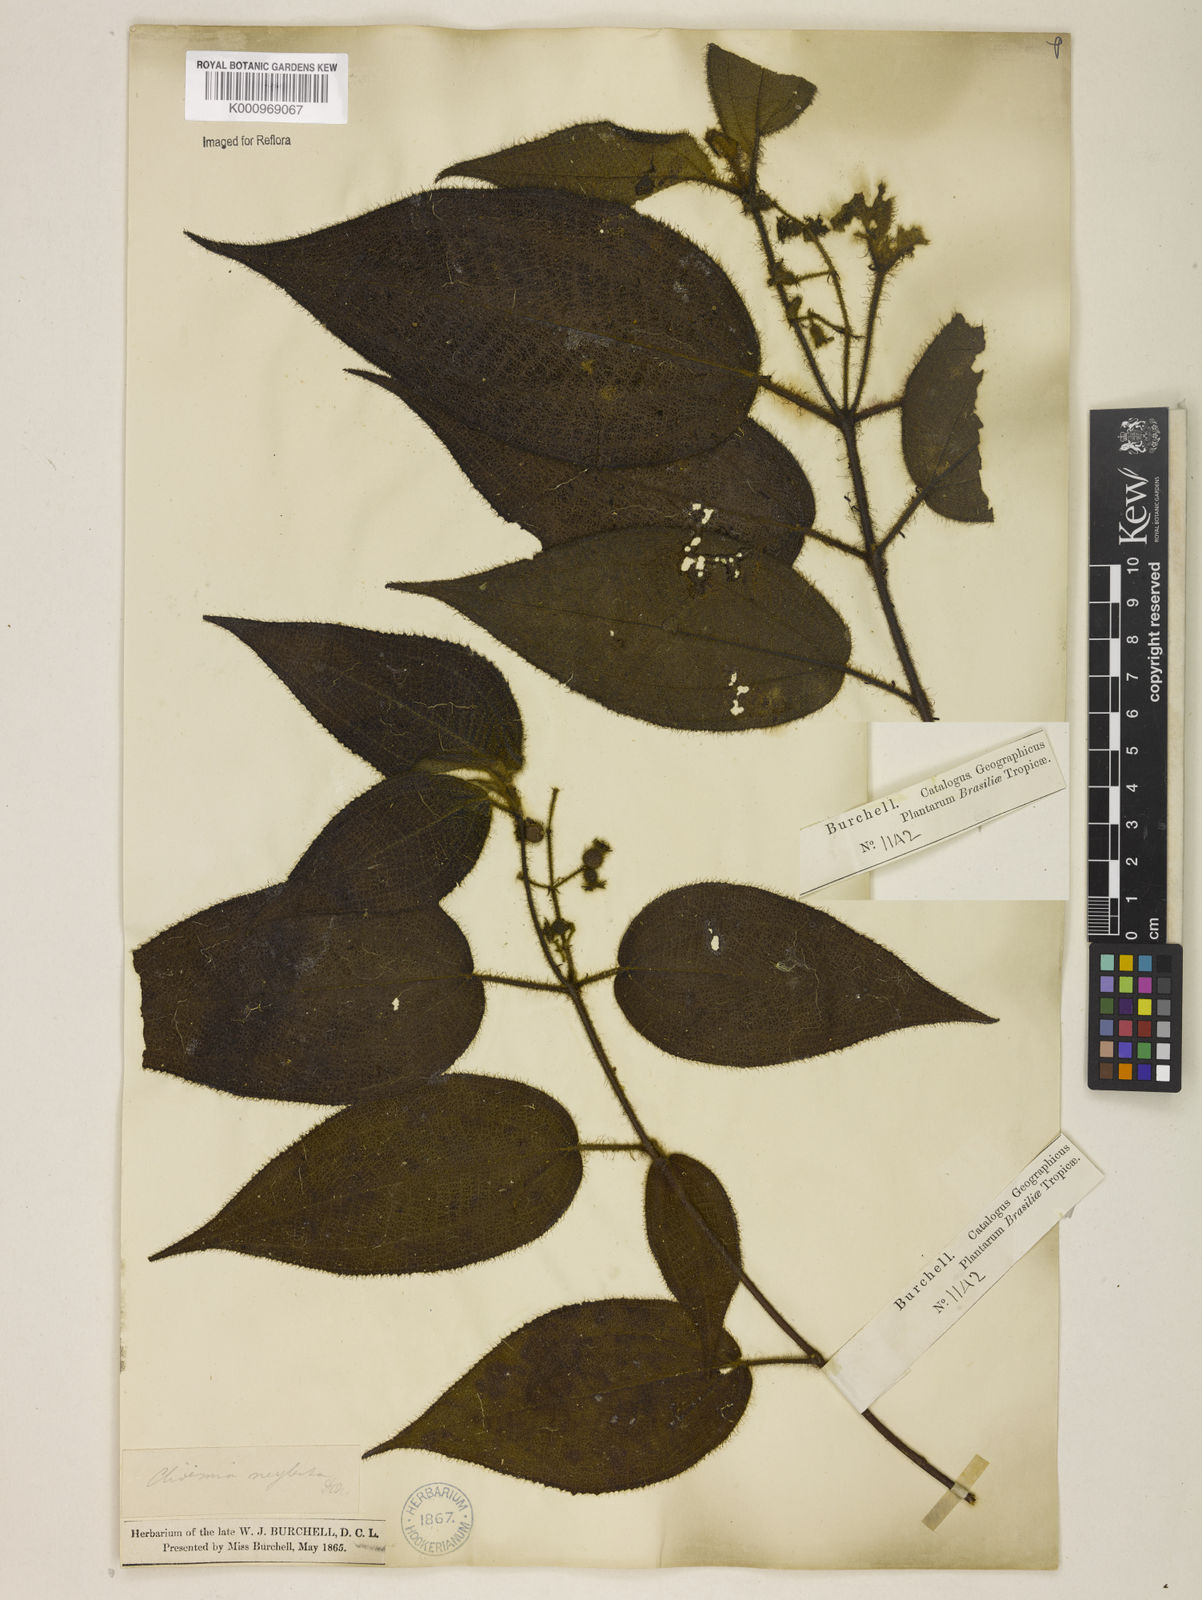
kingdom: Plantae
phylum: Tracheophyta
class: Magnoliopsida
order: Myrtales
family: Melastomataceae
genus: Miconia
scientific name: Miconia dependens
